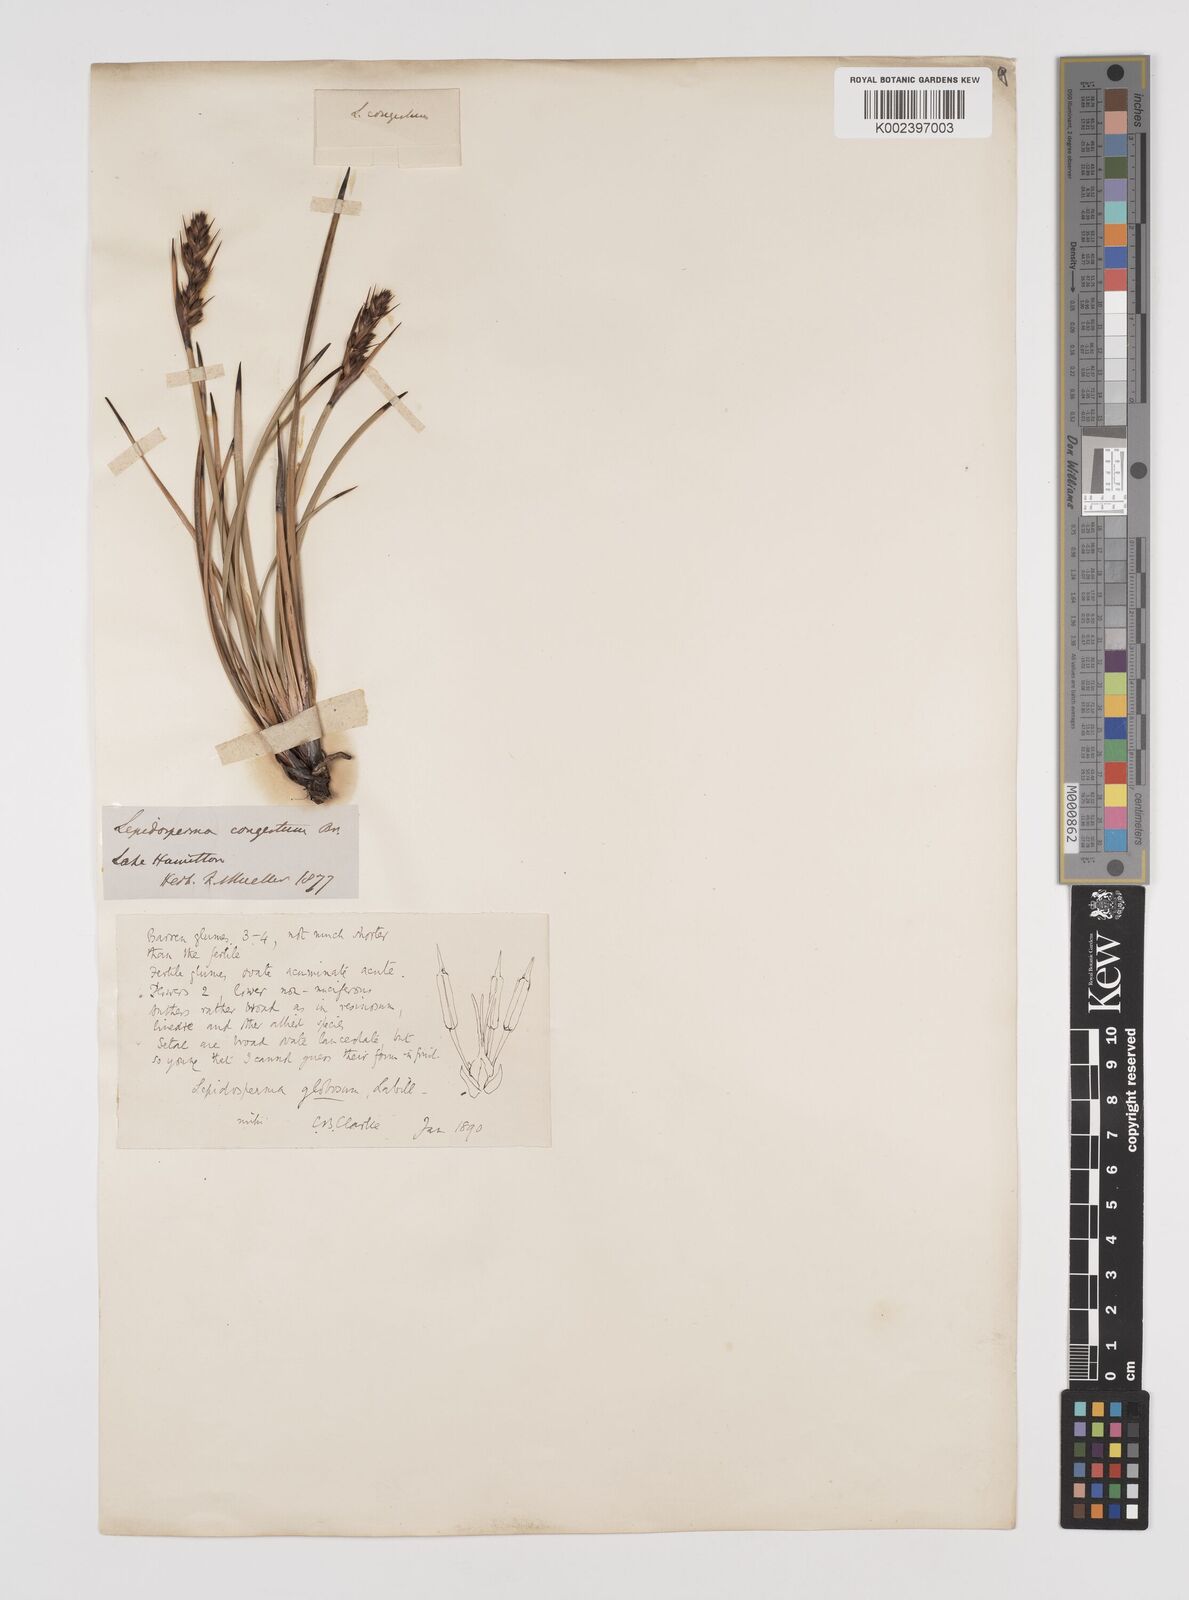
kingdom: Plantae
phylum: Tracheophyta
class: Liliopsida
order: Poales
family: Cyperaceae
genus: Lepidosperma
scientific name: Lepidosperma congestum
